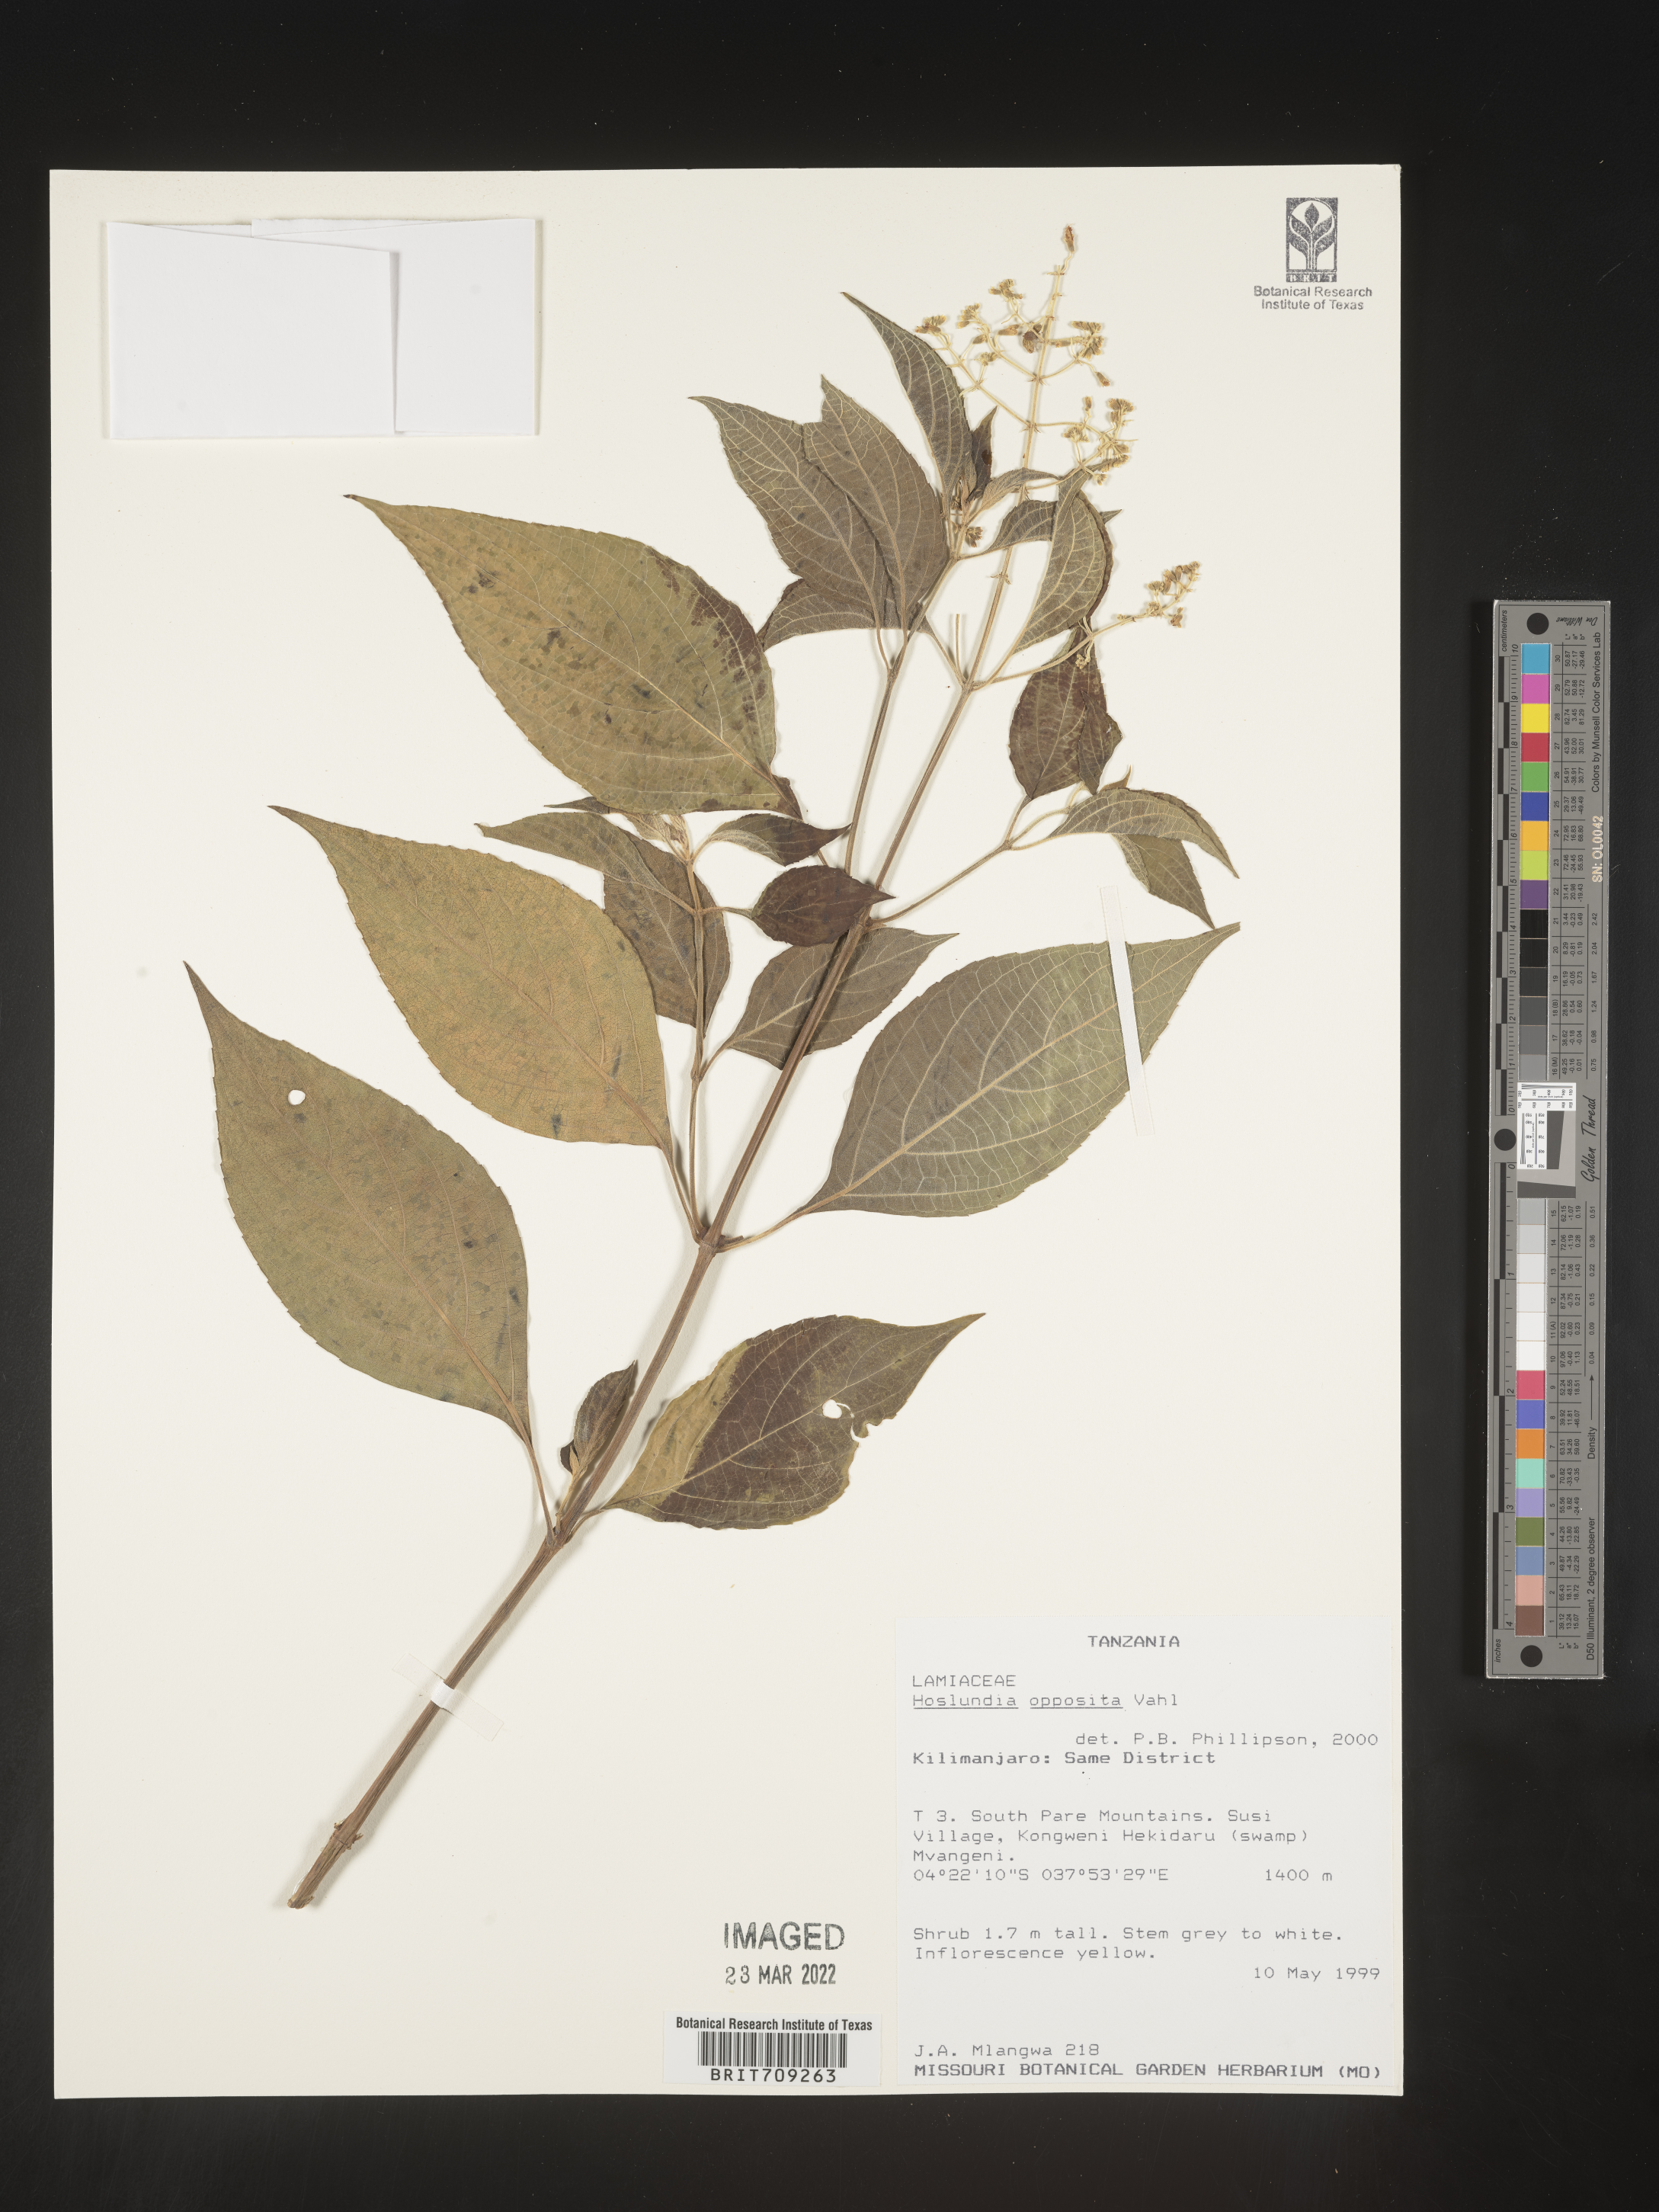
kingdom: Plantae
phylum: Tracheophyta
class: Magnoliopsida
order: Lamiales
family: Lamiaceae
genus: Hoslundia
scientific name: Hoslundia opposita
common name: Kamyuye
